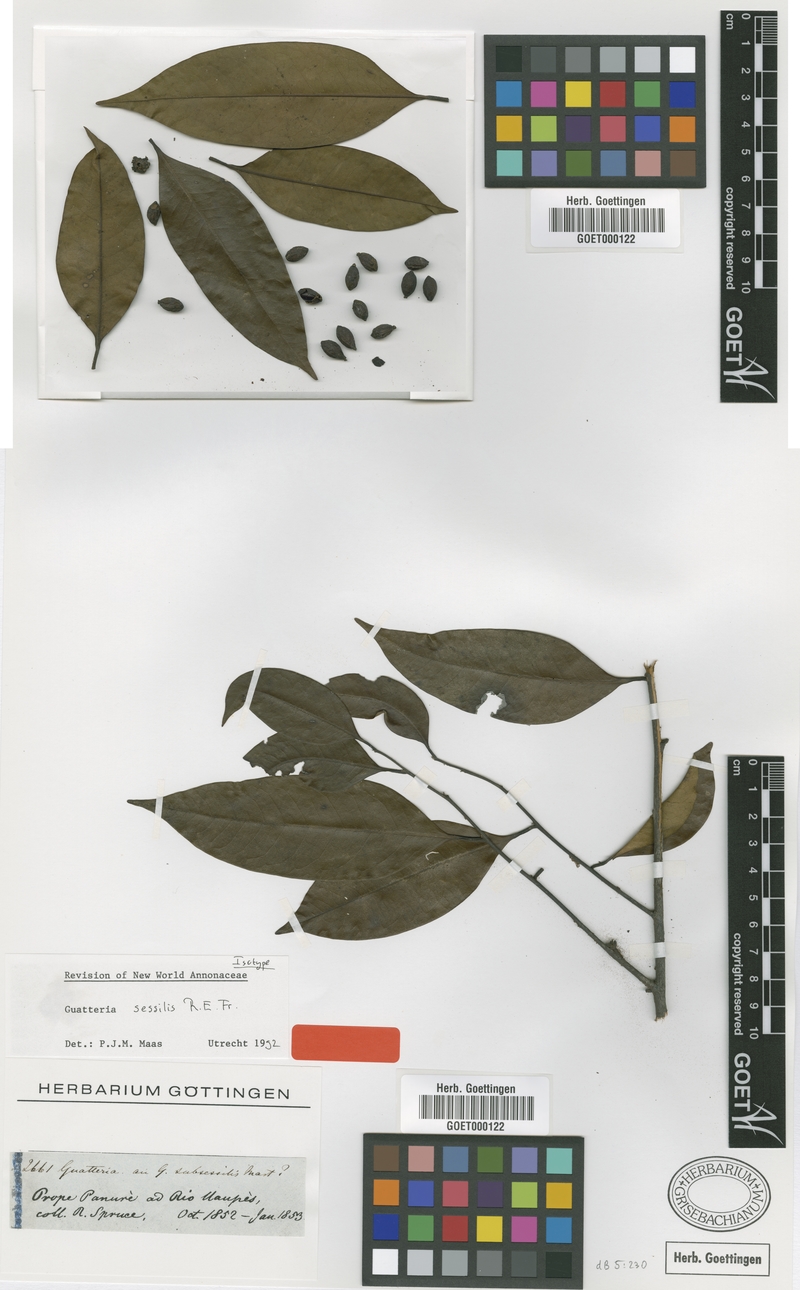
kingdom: Plantae
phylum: Tracheophyta
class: Magnoliopsida
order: Magnoliales
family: Annonaceae
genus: Guatteria
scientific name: Guatteria schomburgkiana
